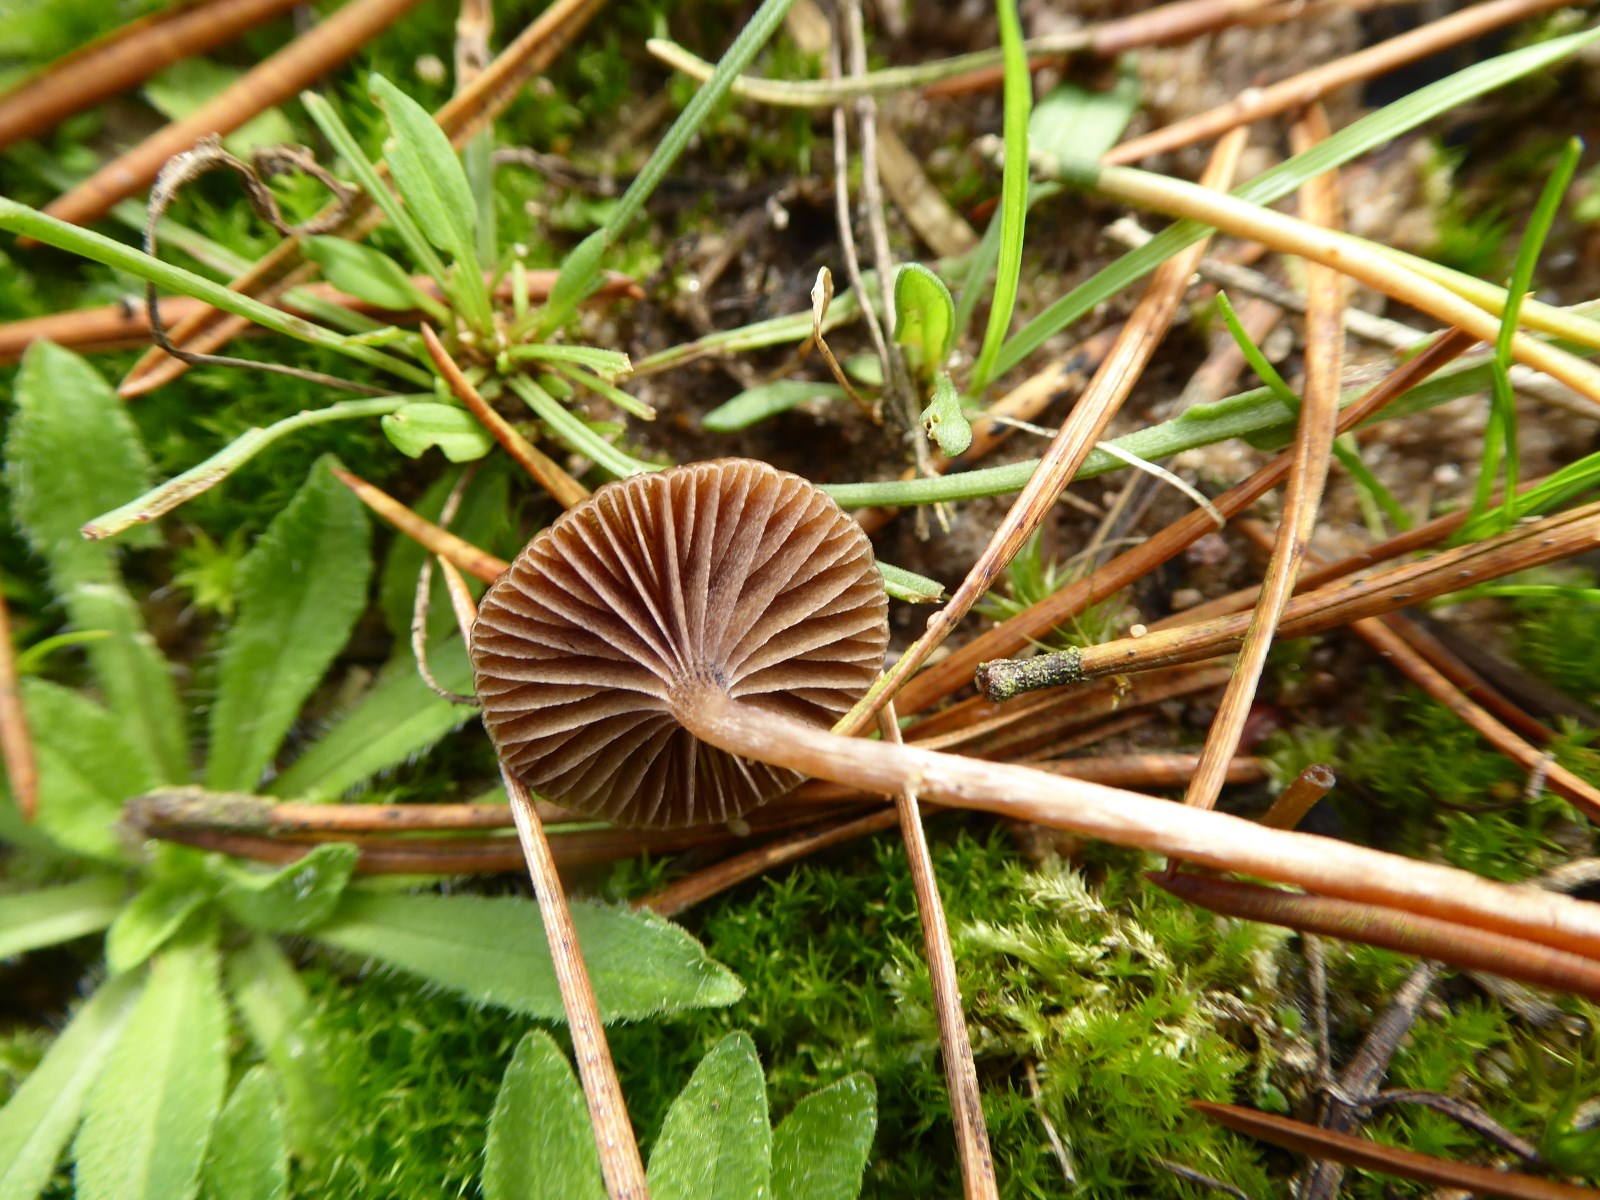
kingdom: Fungi
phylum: Basidiomycota
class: Agaricomycetes
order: Agaricales
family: Strophariaceae
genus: Deconica
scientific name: Deconica montana
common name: rødbrun stråhat
